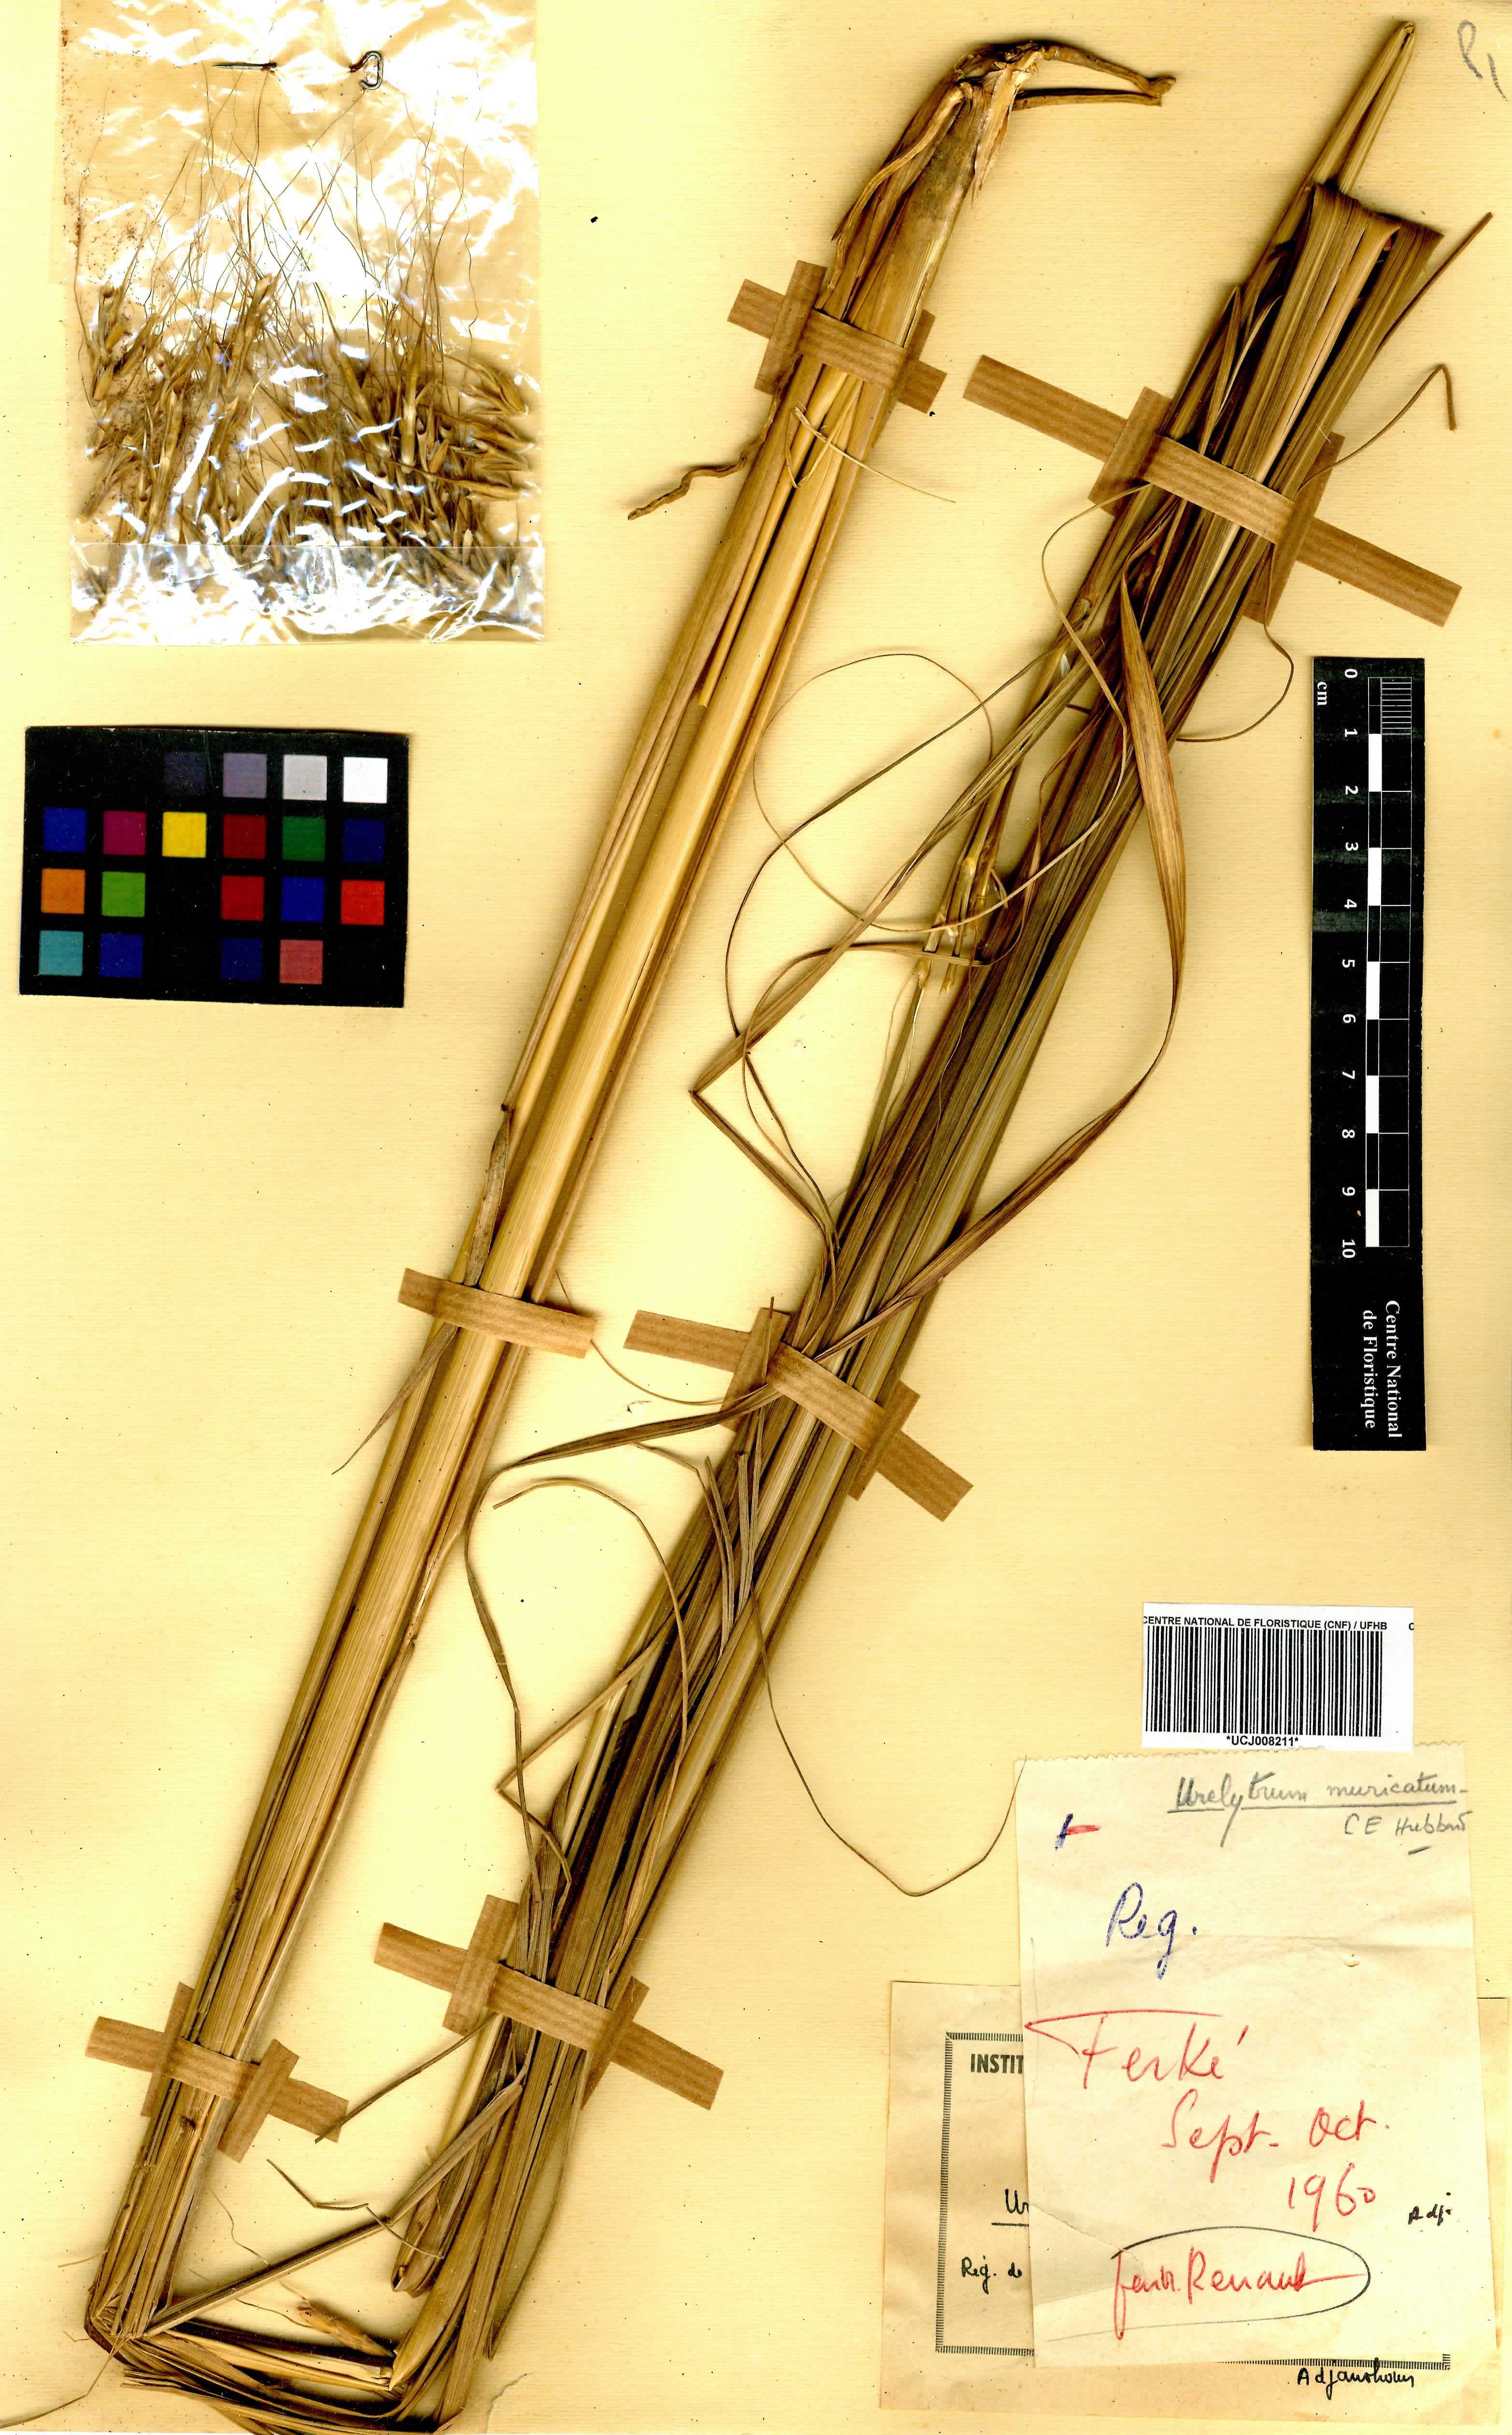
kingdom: Plantae
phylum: Tracheophyta
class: Liliopsida
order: Poales
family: Poaceae
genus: Urelytrum
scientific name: Urelytrum muricatum
